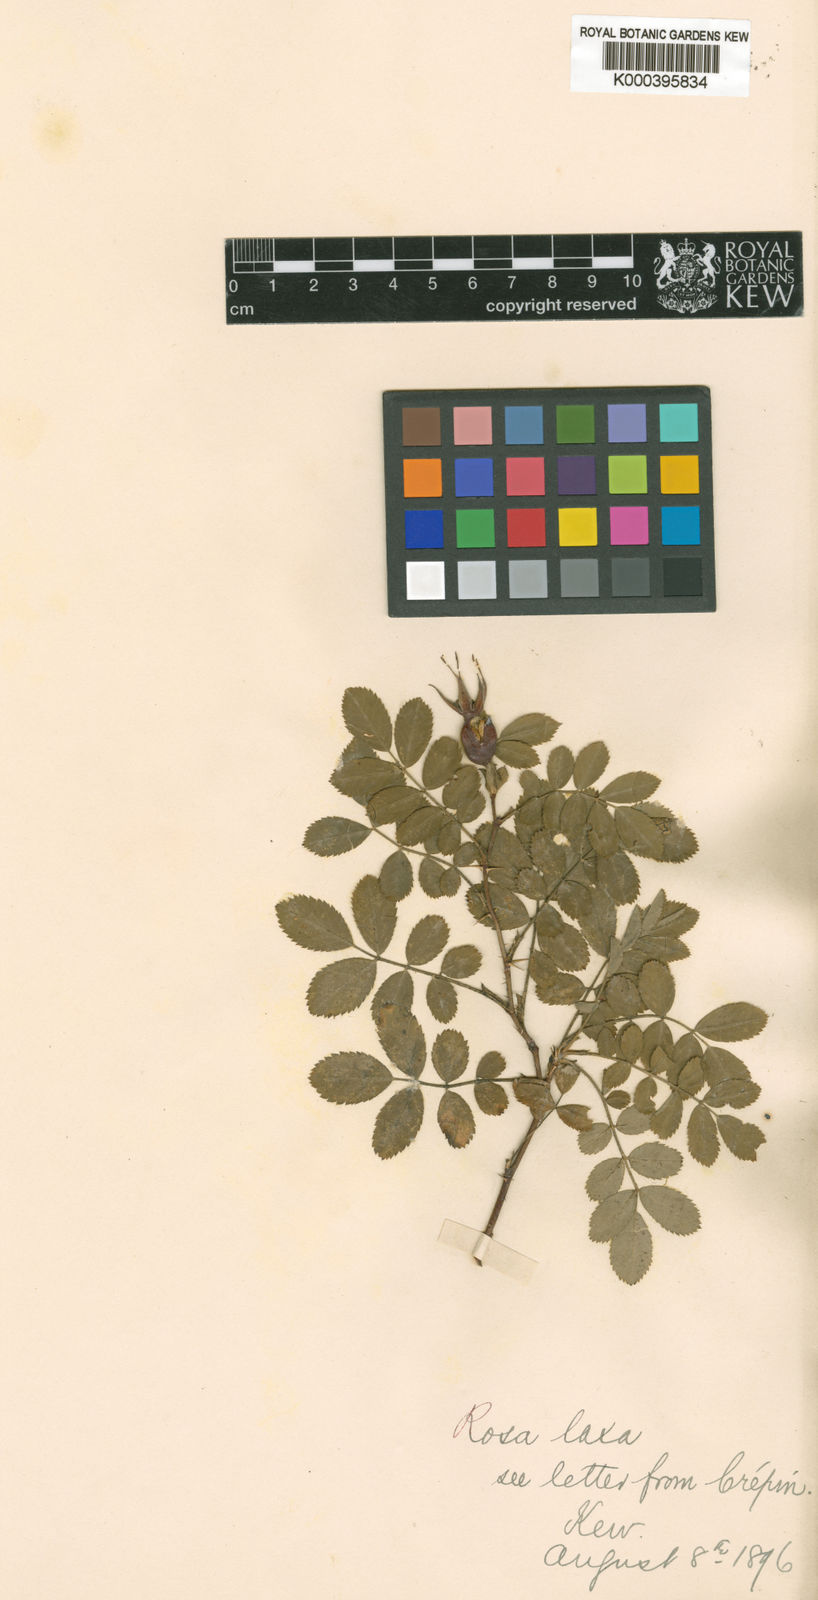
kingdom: Plantae
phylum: Tracheophyta
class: Magnoliopsida
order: Rosales
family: Rosaceae
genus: Rosa
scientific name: Rosa laxa
